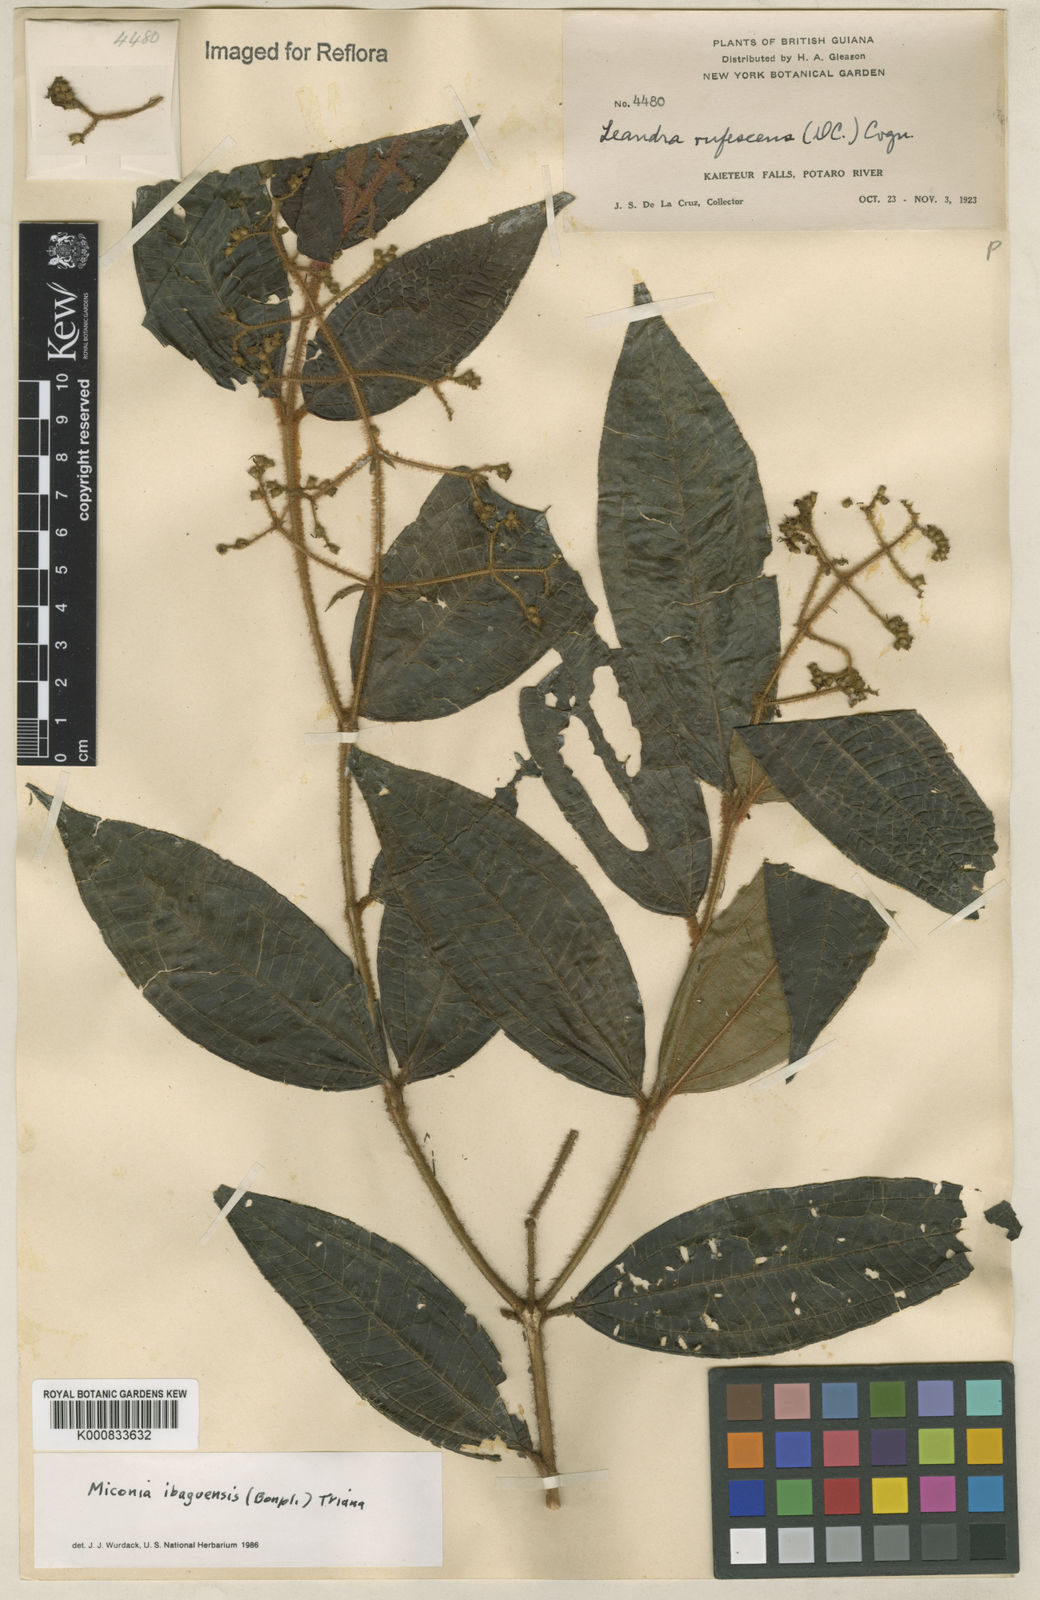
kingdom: Plantae
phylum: Tracheophyta
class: Magnoliopsida
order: Myrtales
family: Melastomataceae
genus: Miconia
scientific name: Miconia ibaguensis
